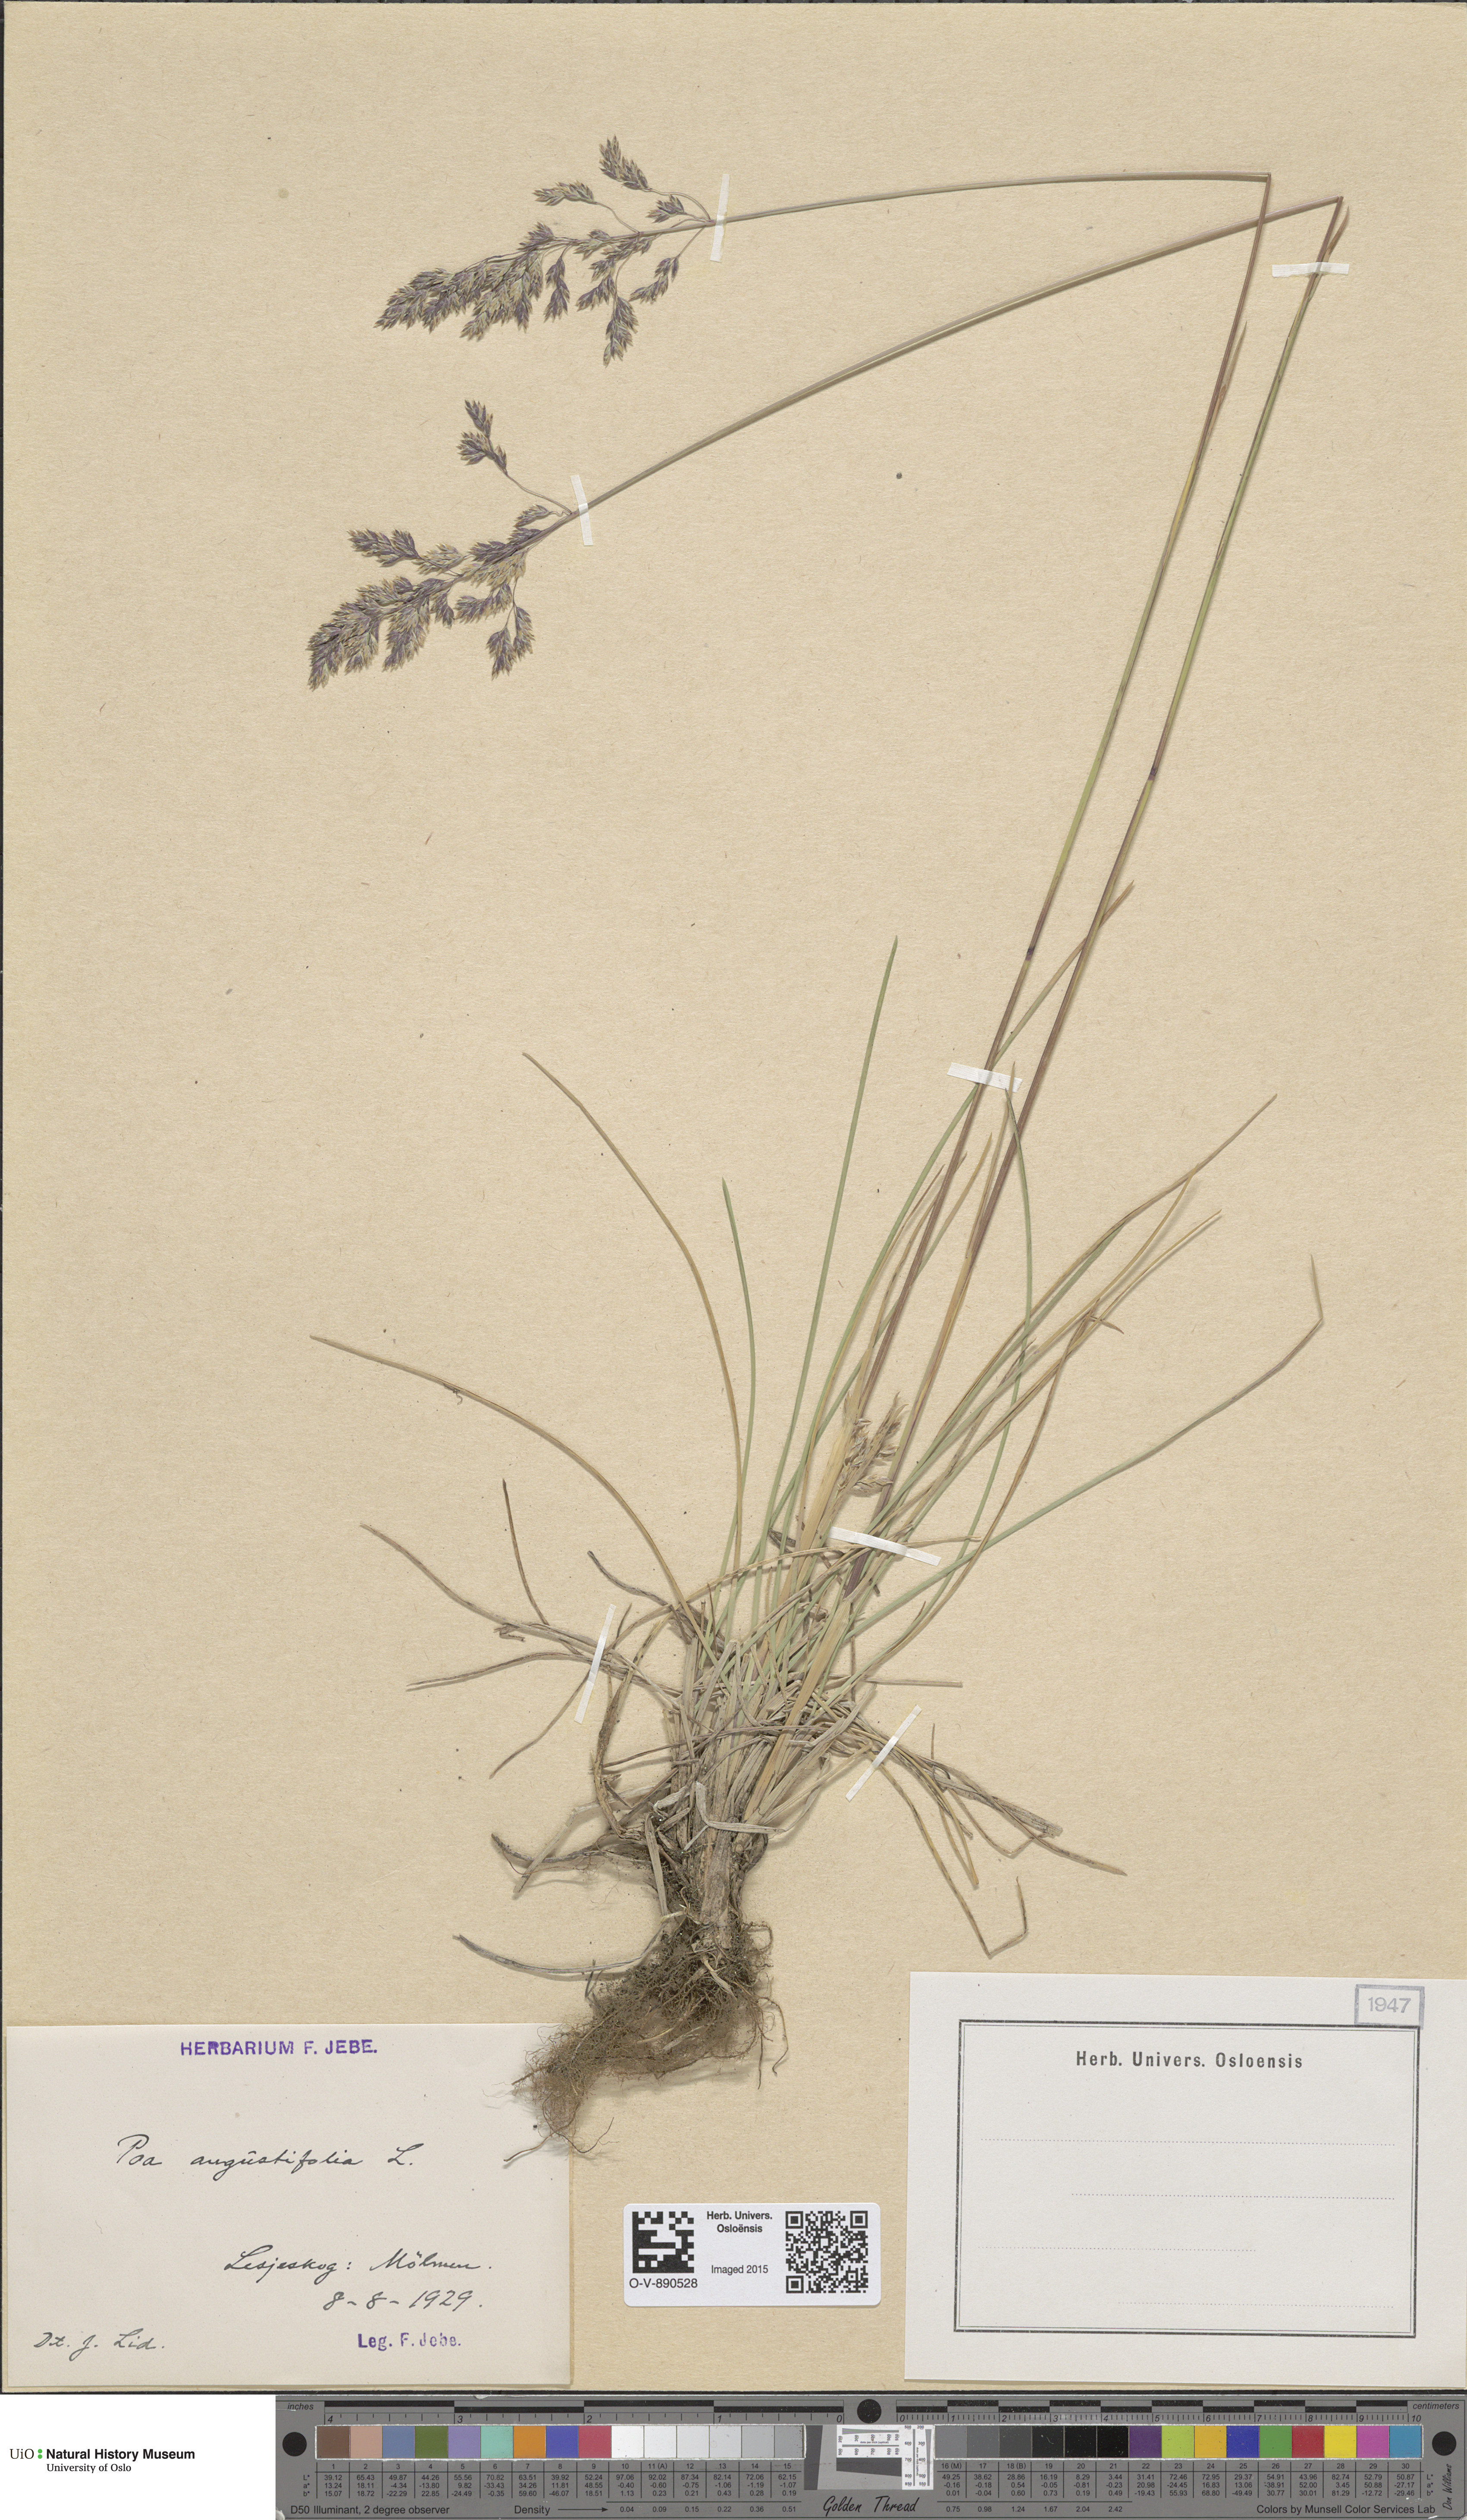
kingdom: Plantae
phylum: Tracheophyta
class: Liliopsida
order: Poales
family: Poaceae
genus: Poa
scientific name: Poa angustifolia
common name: Narrow-leaved meadow-grass
